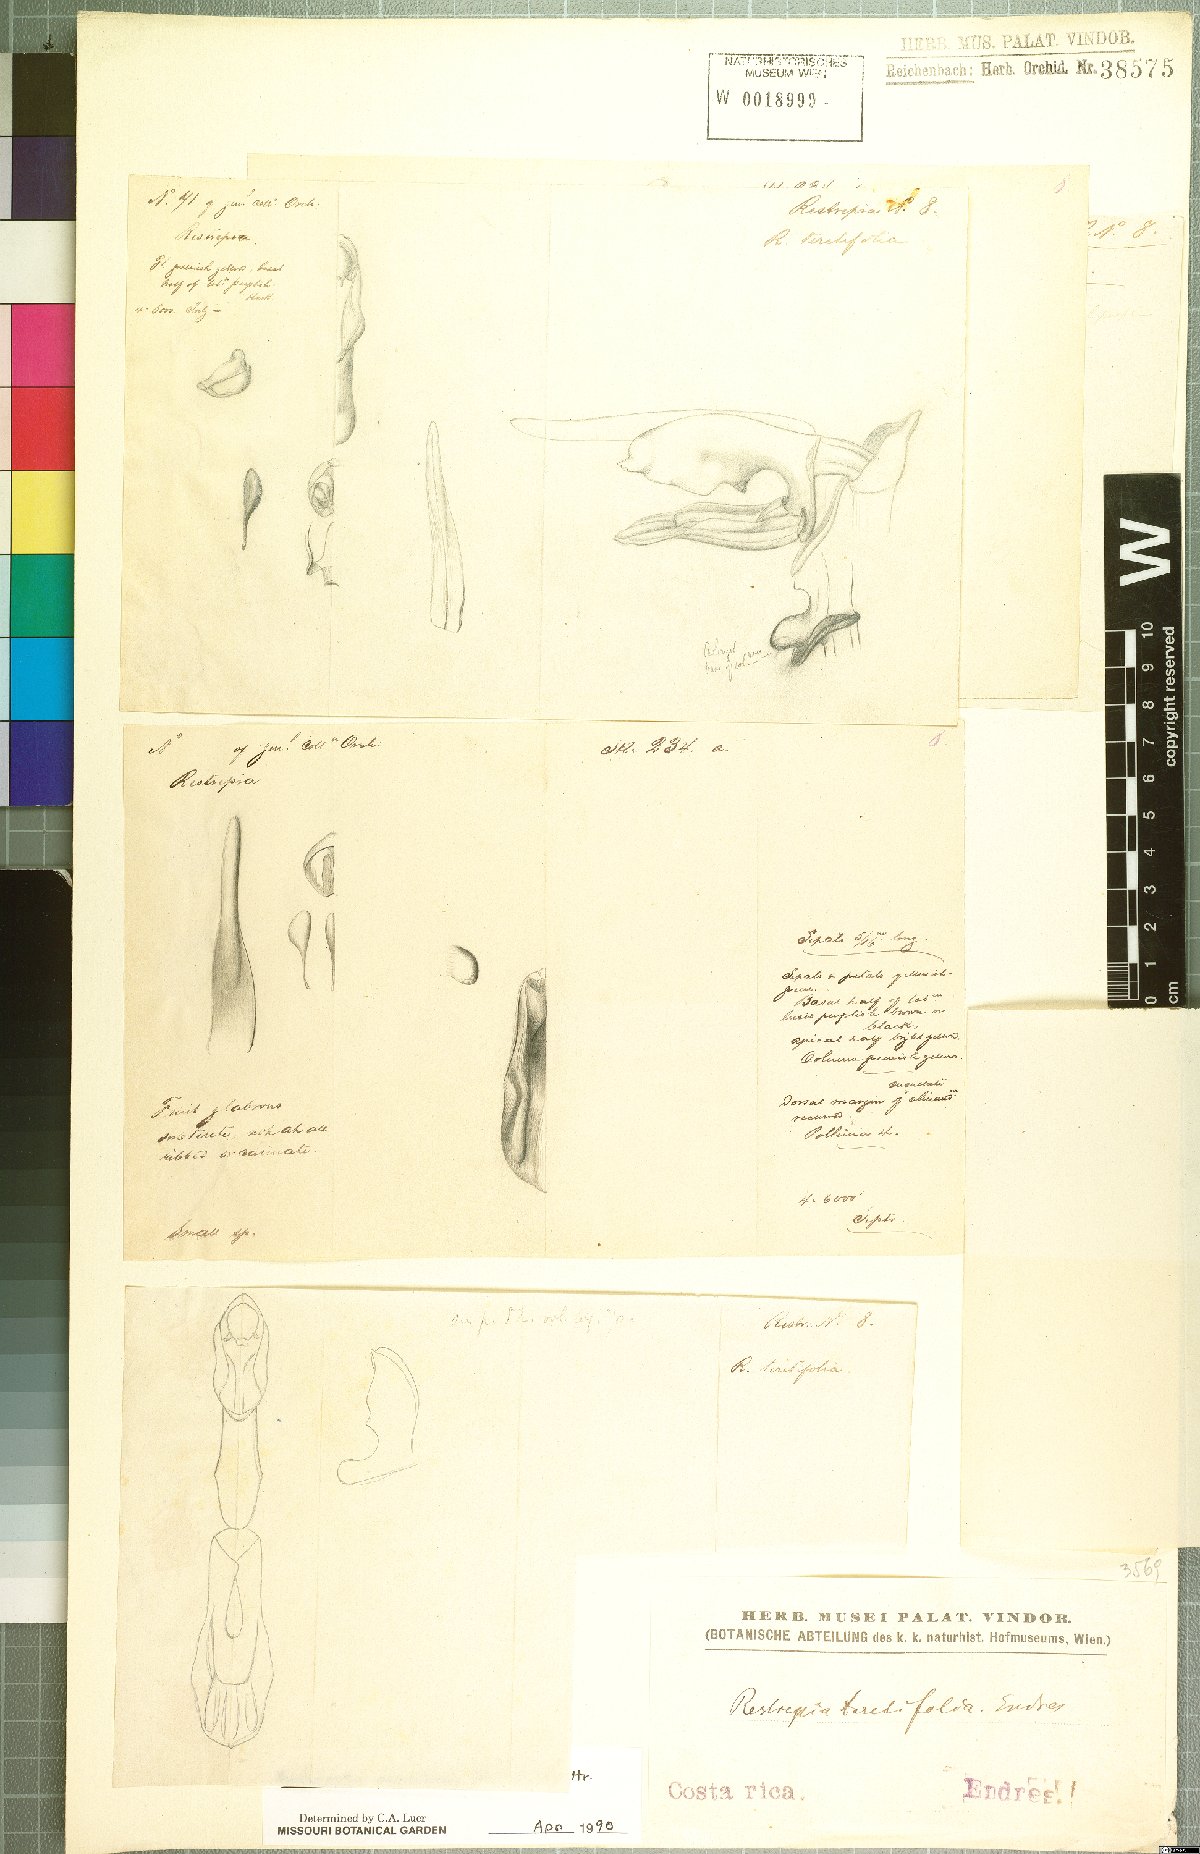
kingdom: Plantae
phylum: Tracheophyta
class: Liliopsida
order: Asparagales
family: Orchidaceae
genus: Barbosella
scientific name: Barbosella prorepens
